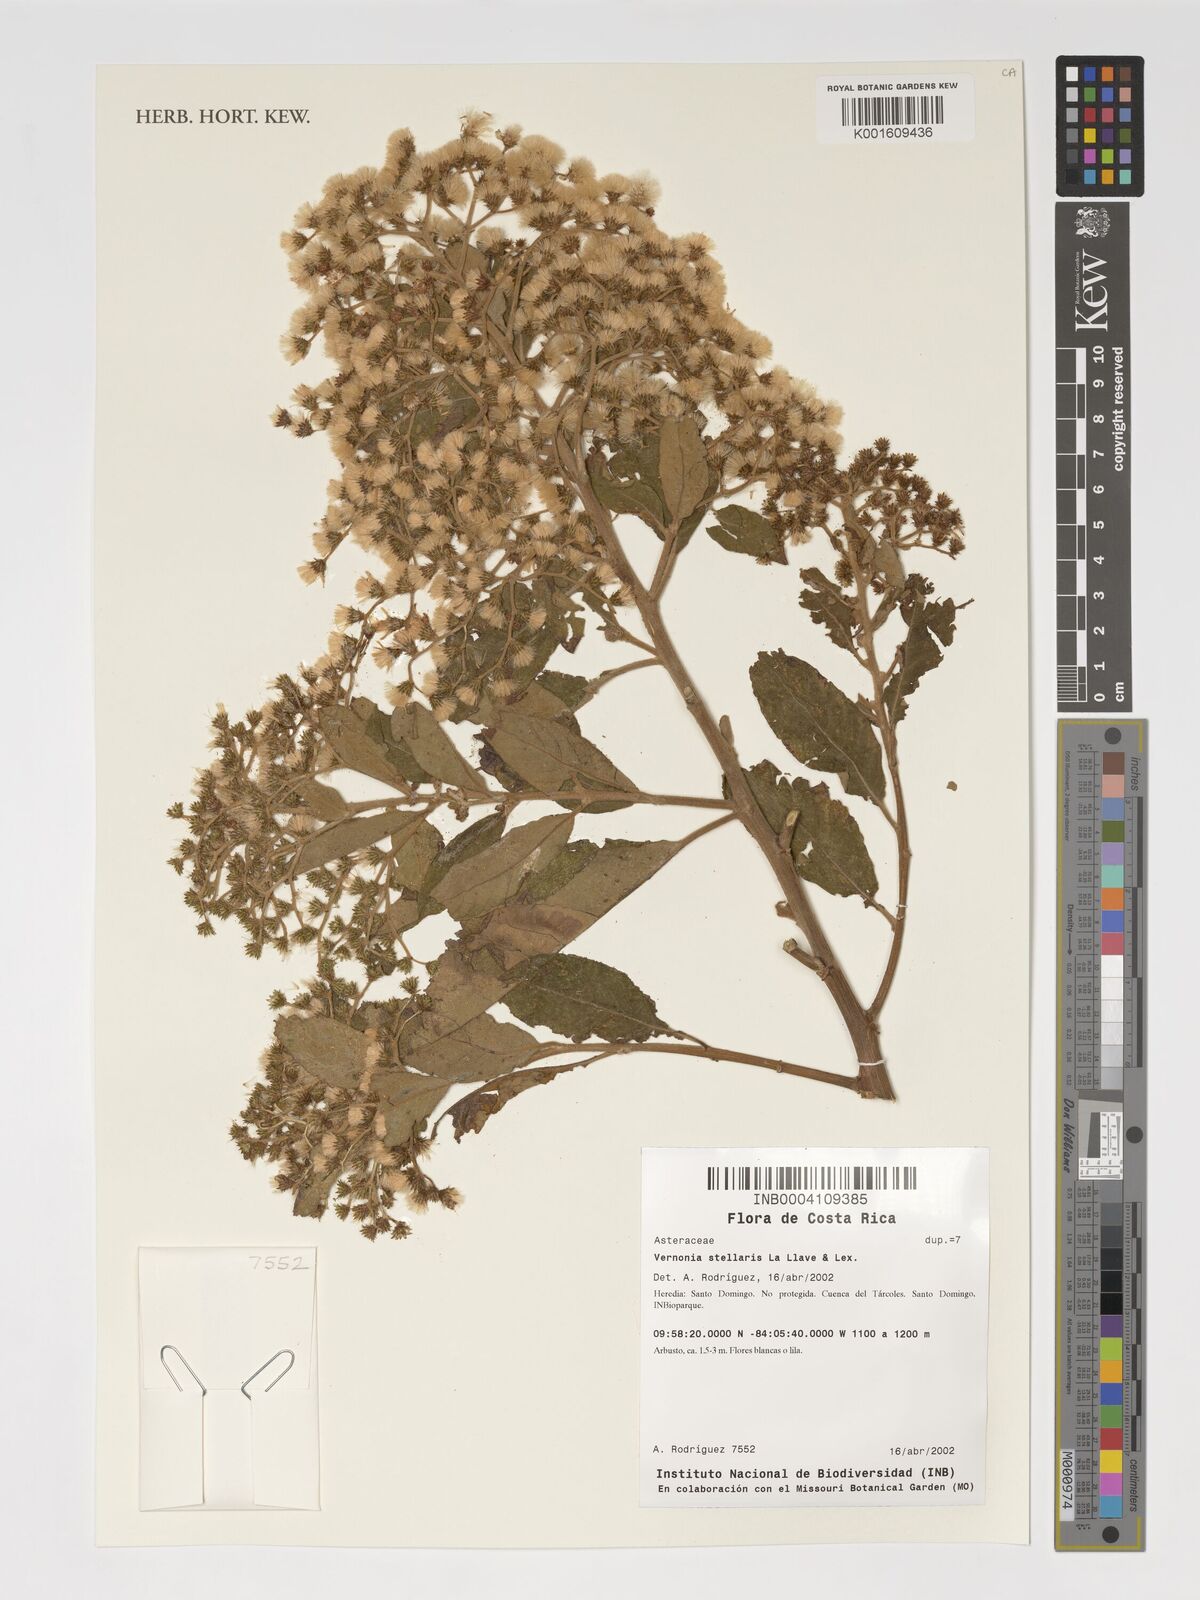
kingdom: Plantae
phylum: Tracheophyta
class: Magnoliopsida
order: Asterales
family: Asteraceae
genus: Vernonanthura
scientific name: Vernonanthura stellaris
